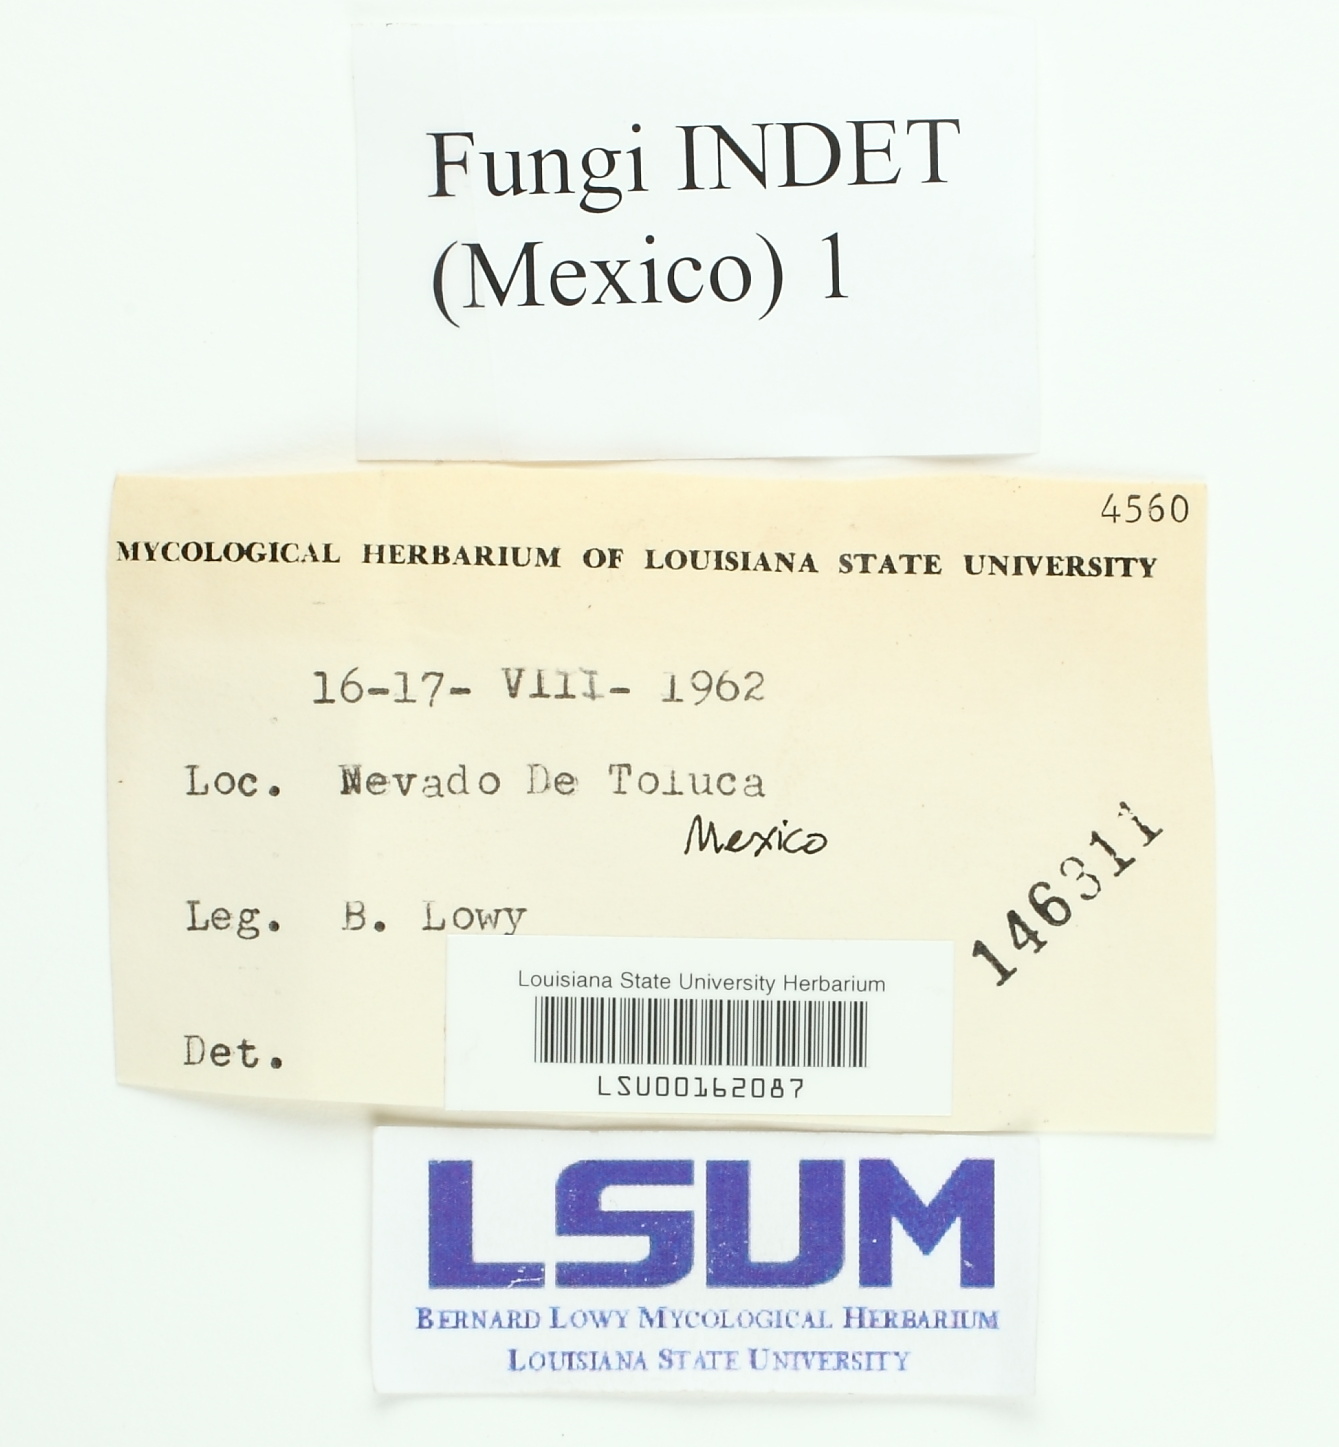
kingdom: Fungi
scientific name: Fungi
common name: Fungi
